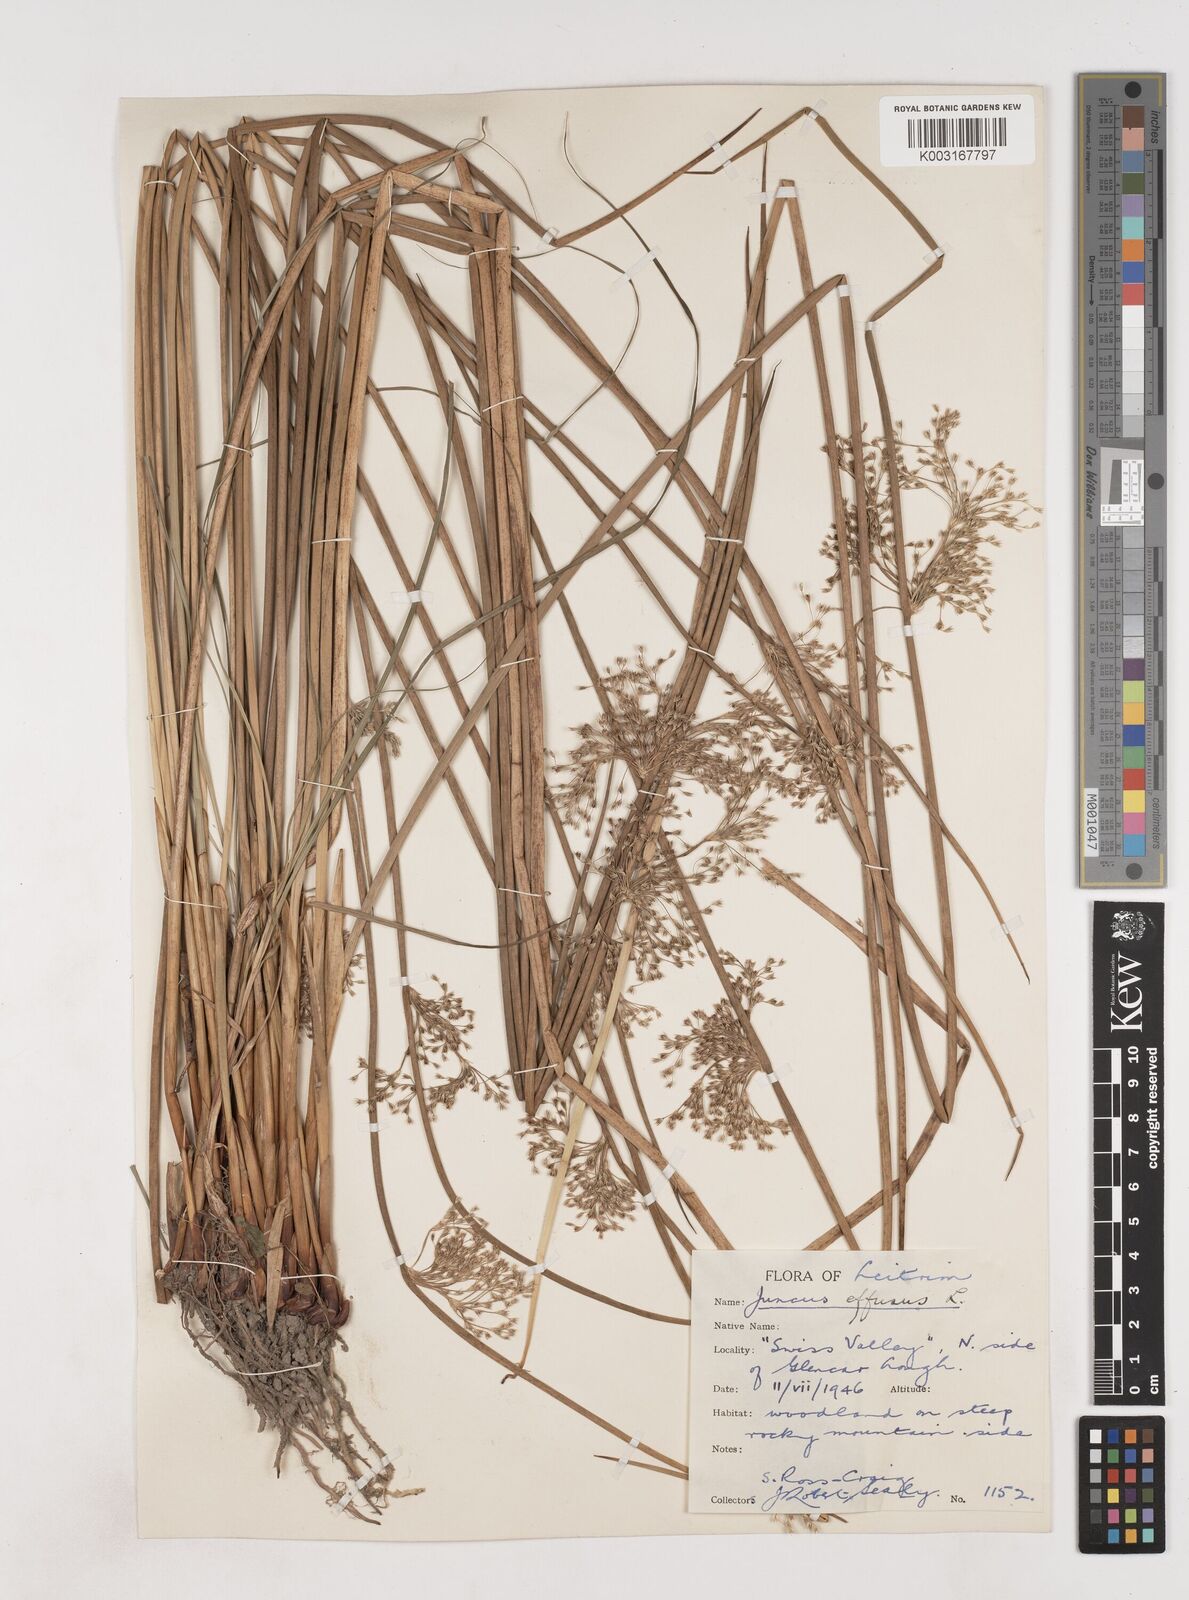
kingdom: Plantae
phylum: Tracheophyta
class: Liliopsida
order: Poales
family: Juncaceae
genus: Juncus
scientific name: Juncus effusus
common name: Soft rush
